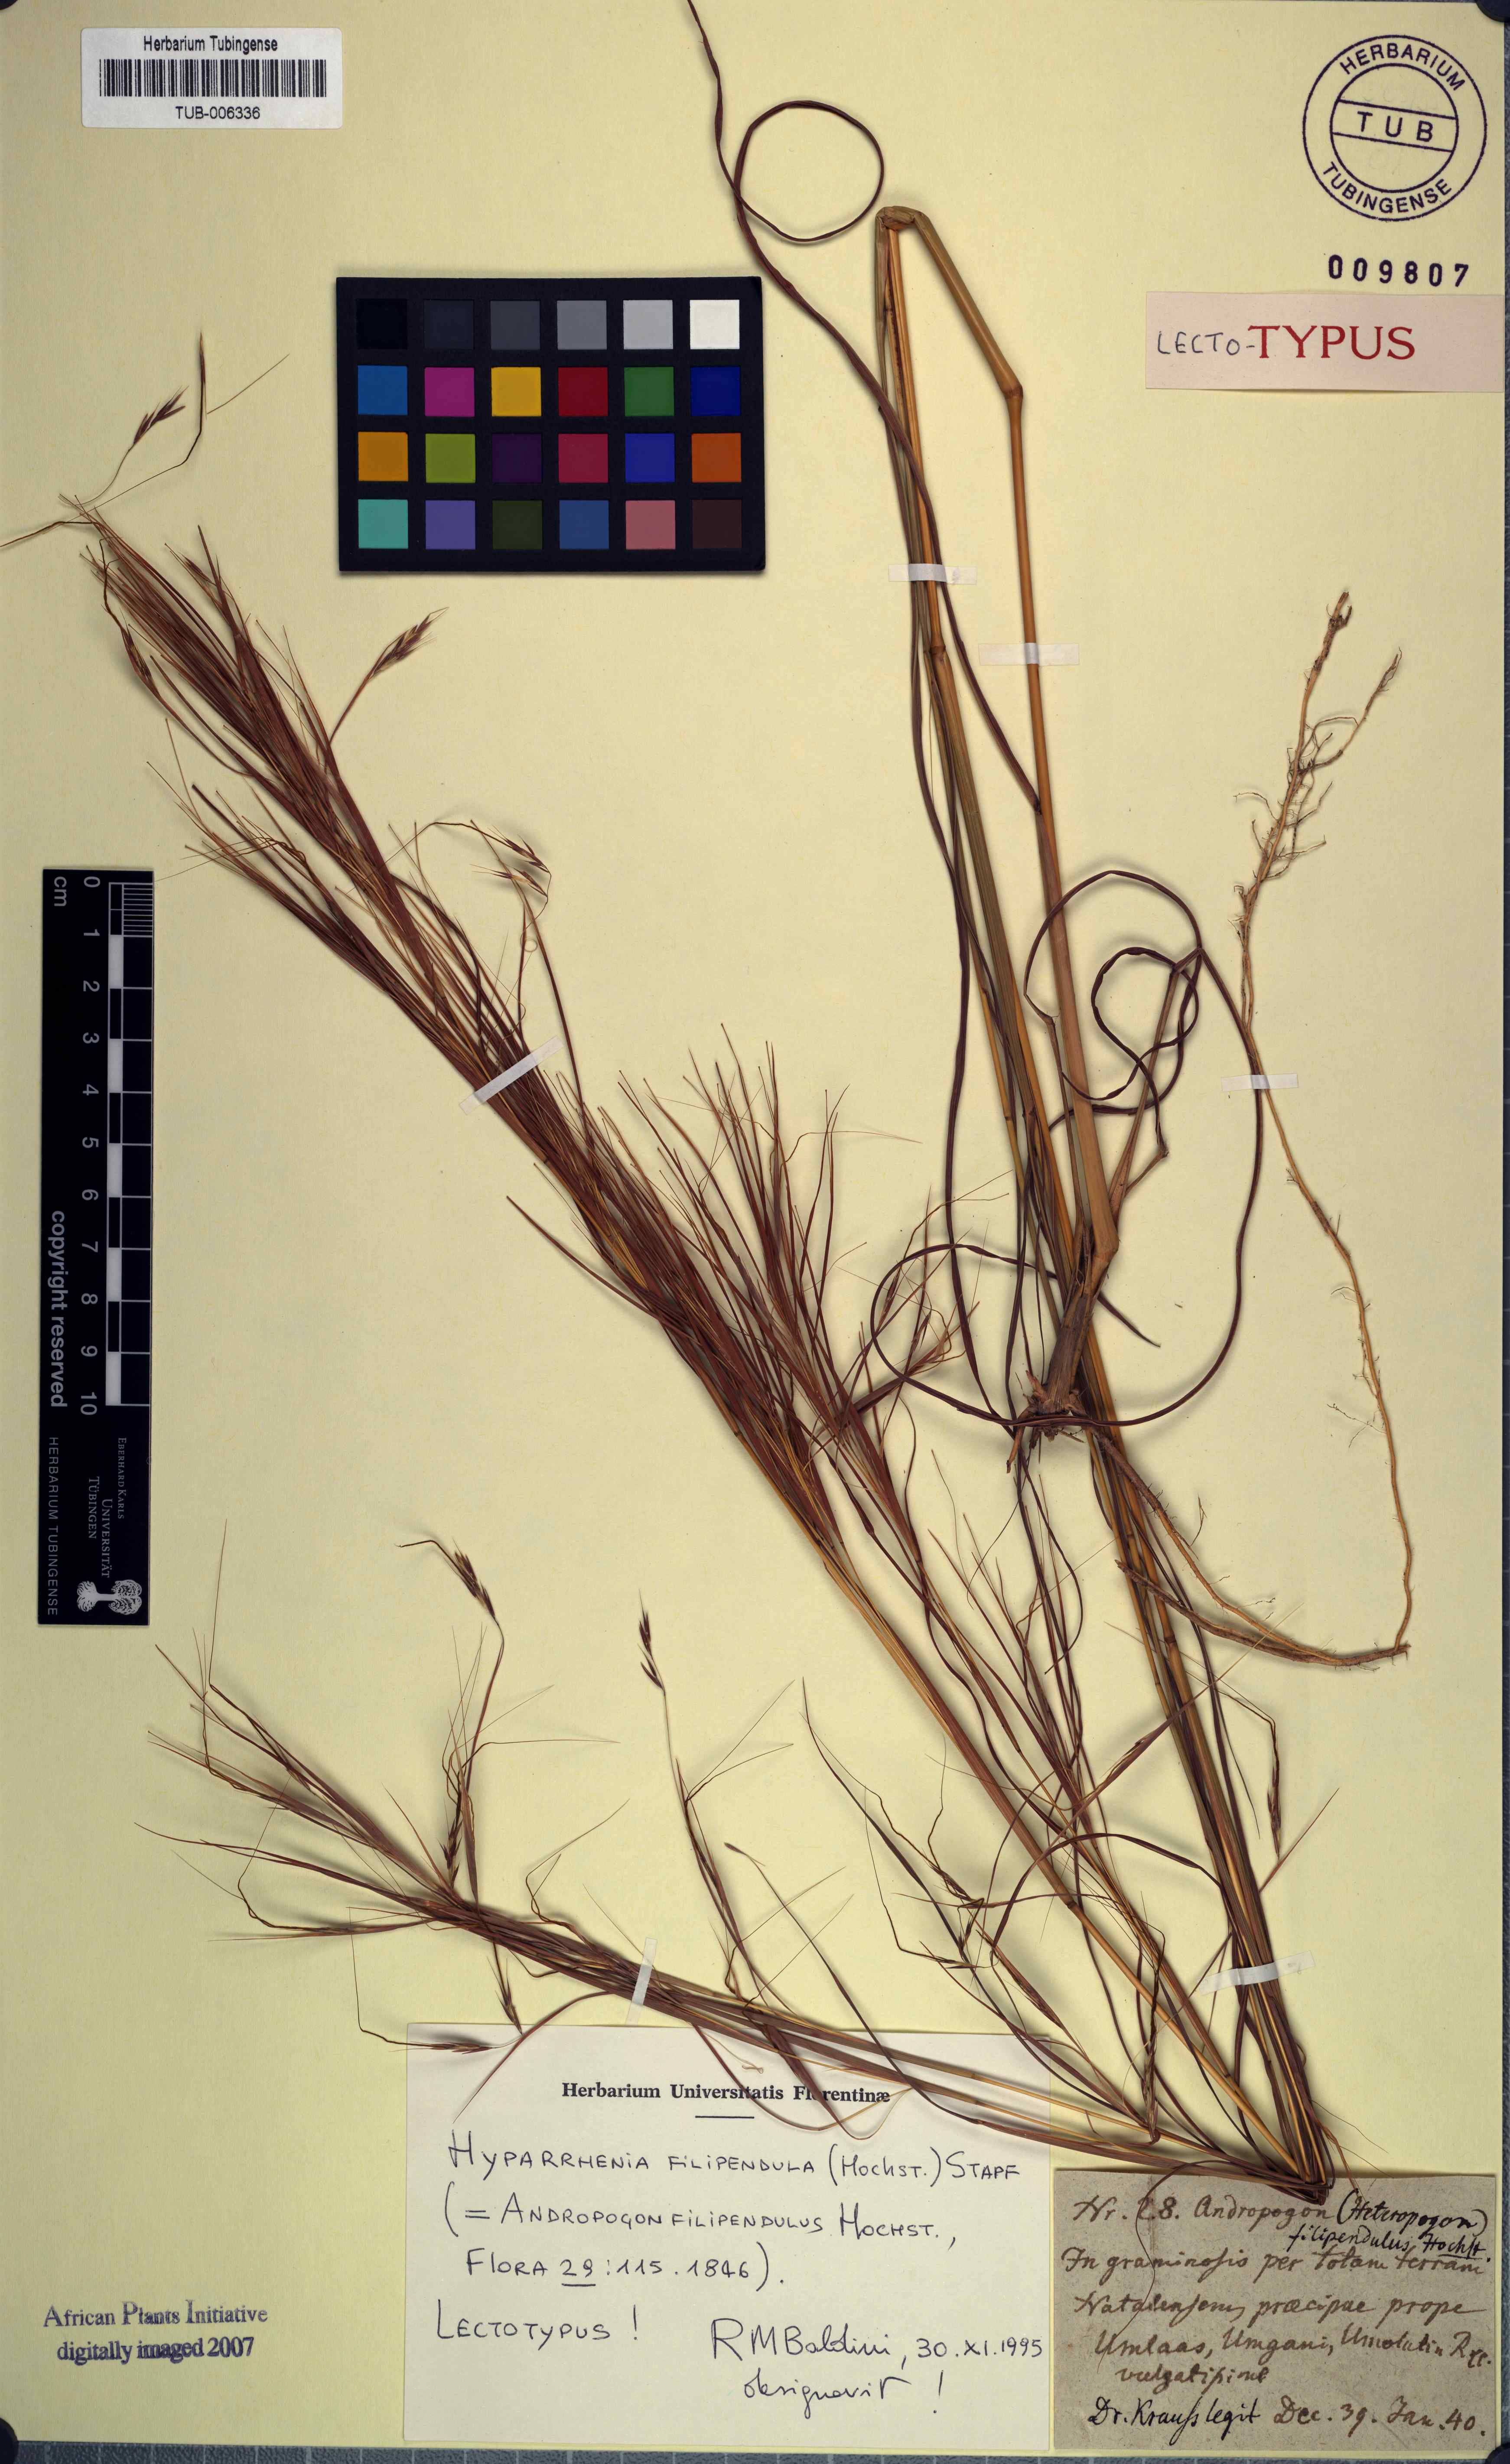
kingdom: Plantae
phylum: Tracheophyta
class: Liliopsida
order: Poales
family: Poaceae
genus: Hyparrhenia
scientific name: Hyparrhenia filipendula
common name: Tambookie grass
